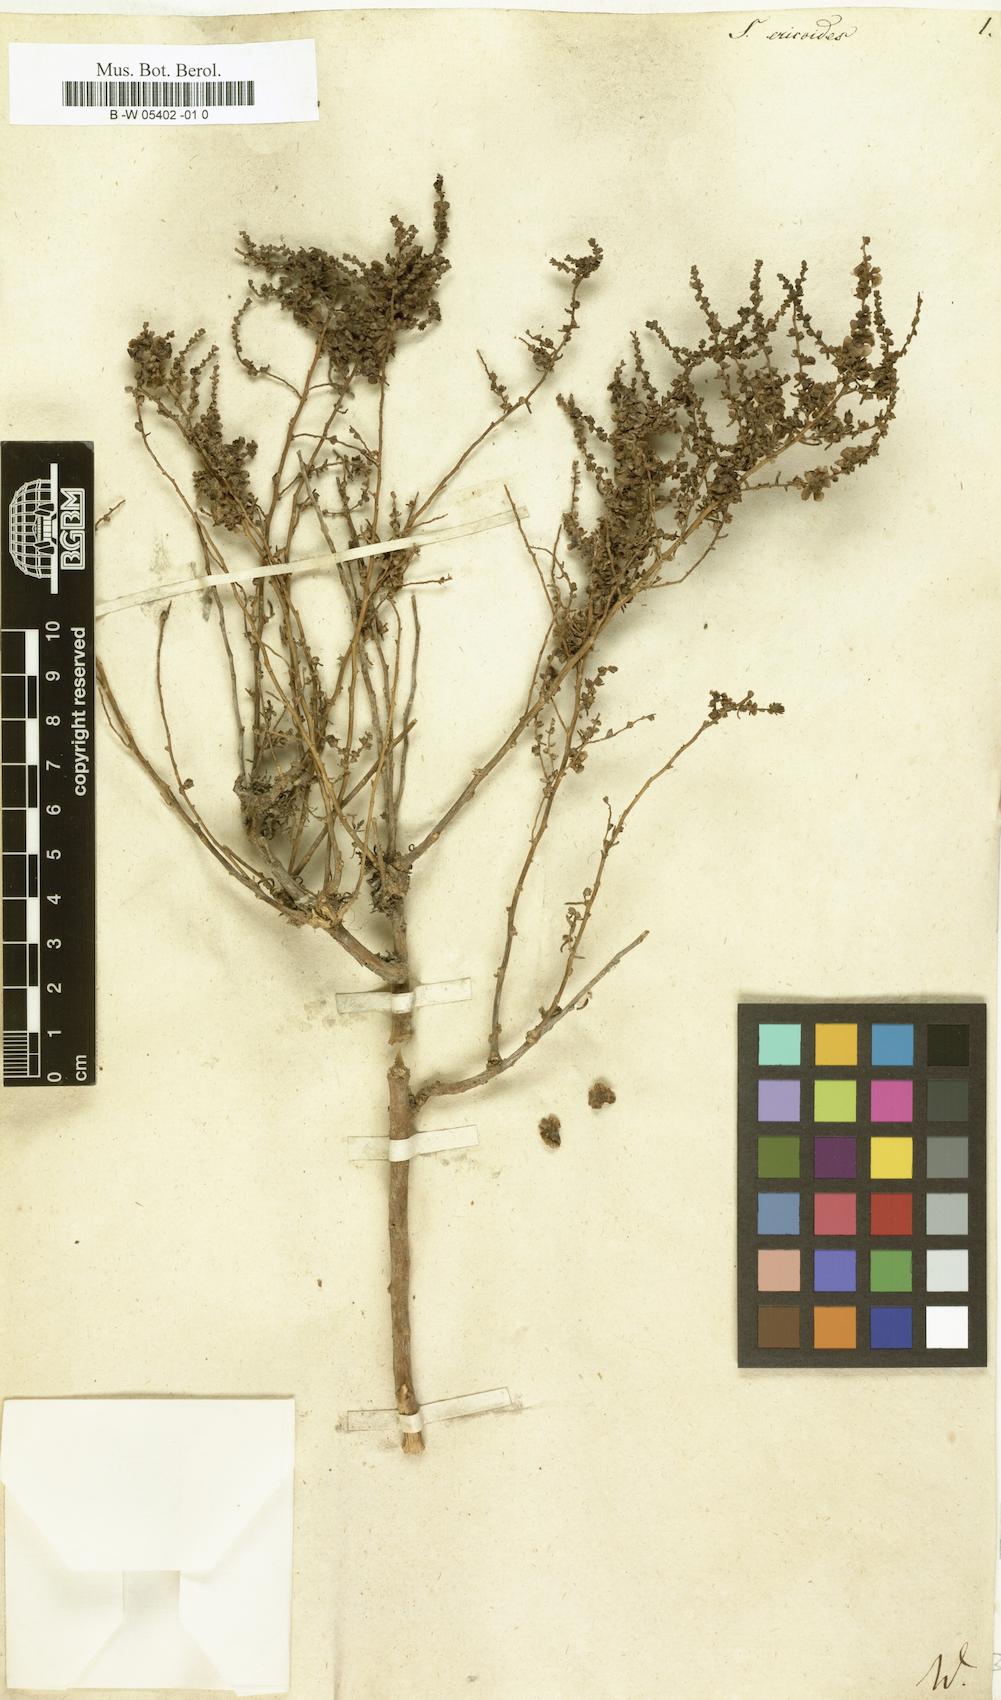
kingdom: Plantae
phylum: Tracheophyta
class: Magnoliopsida
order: Caryophyllales
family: Amaranthaceae
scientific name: Amaranthaceae
